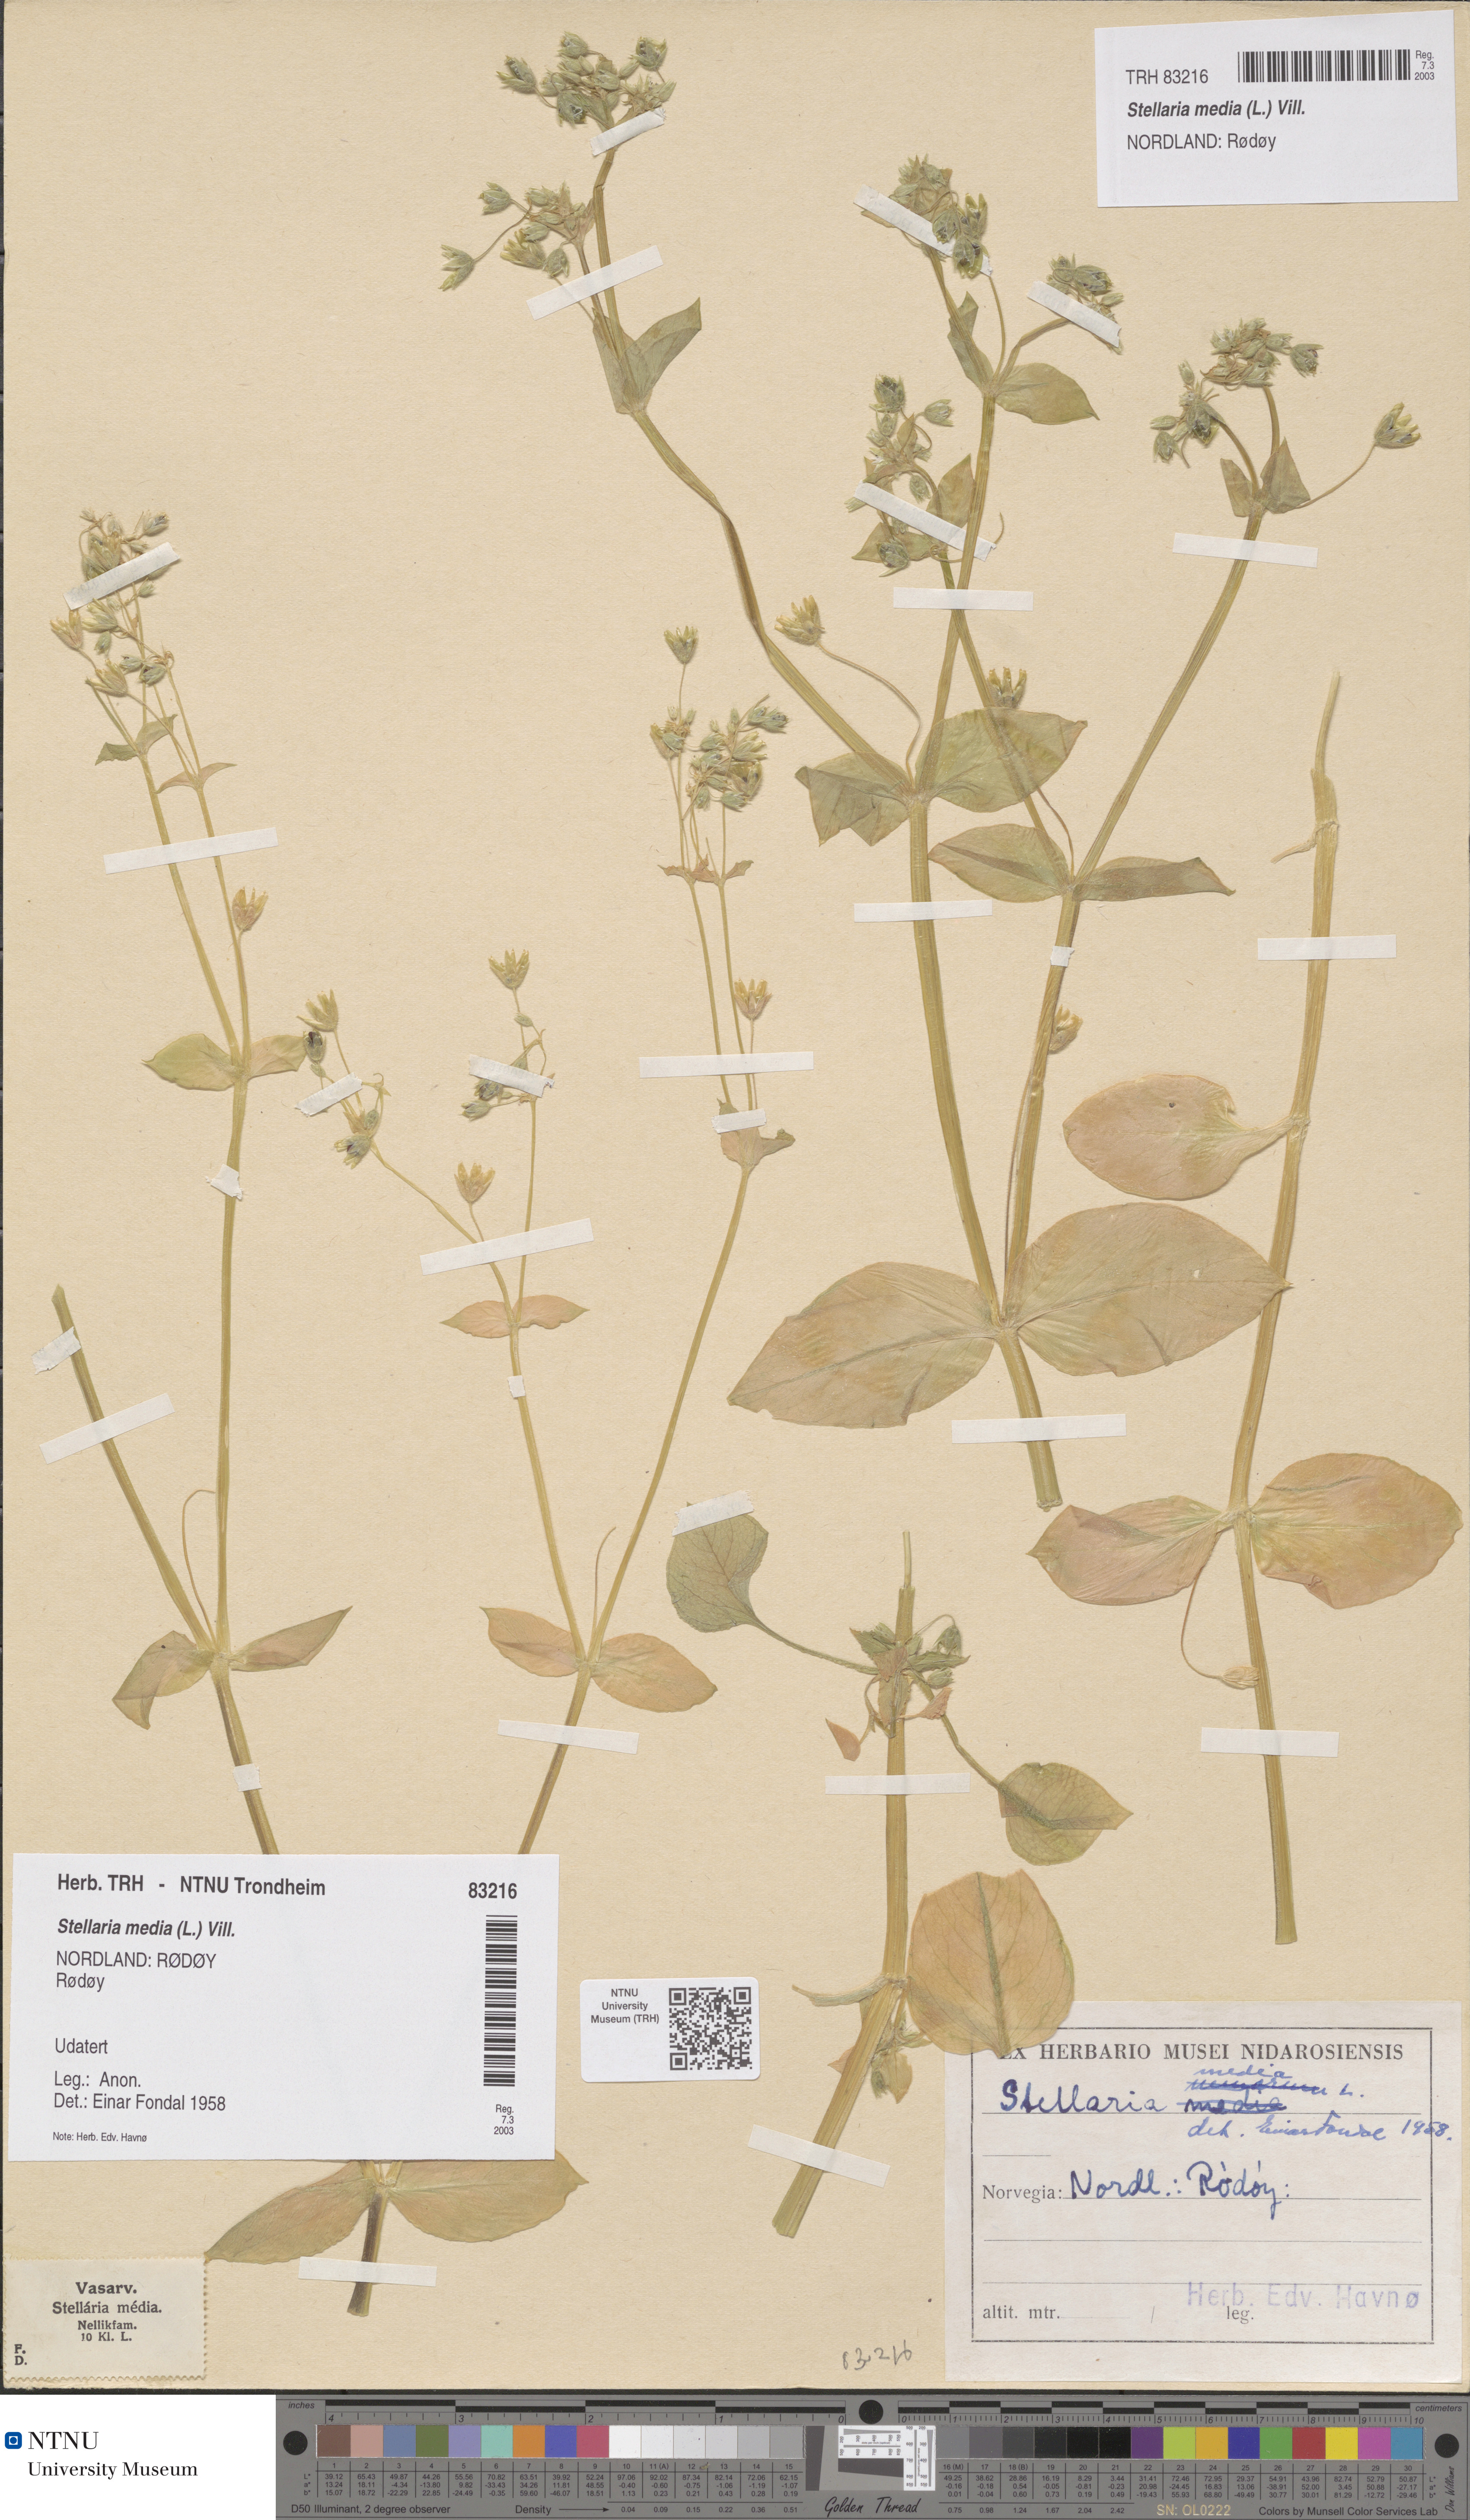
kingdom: Plantae
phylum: Tracheophyta
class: Magnoliopsida
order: Caryophyllales
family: Caryophyllaceae
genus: Stellaria
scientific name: Stellaria media
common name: Common chickweed
